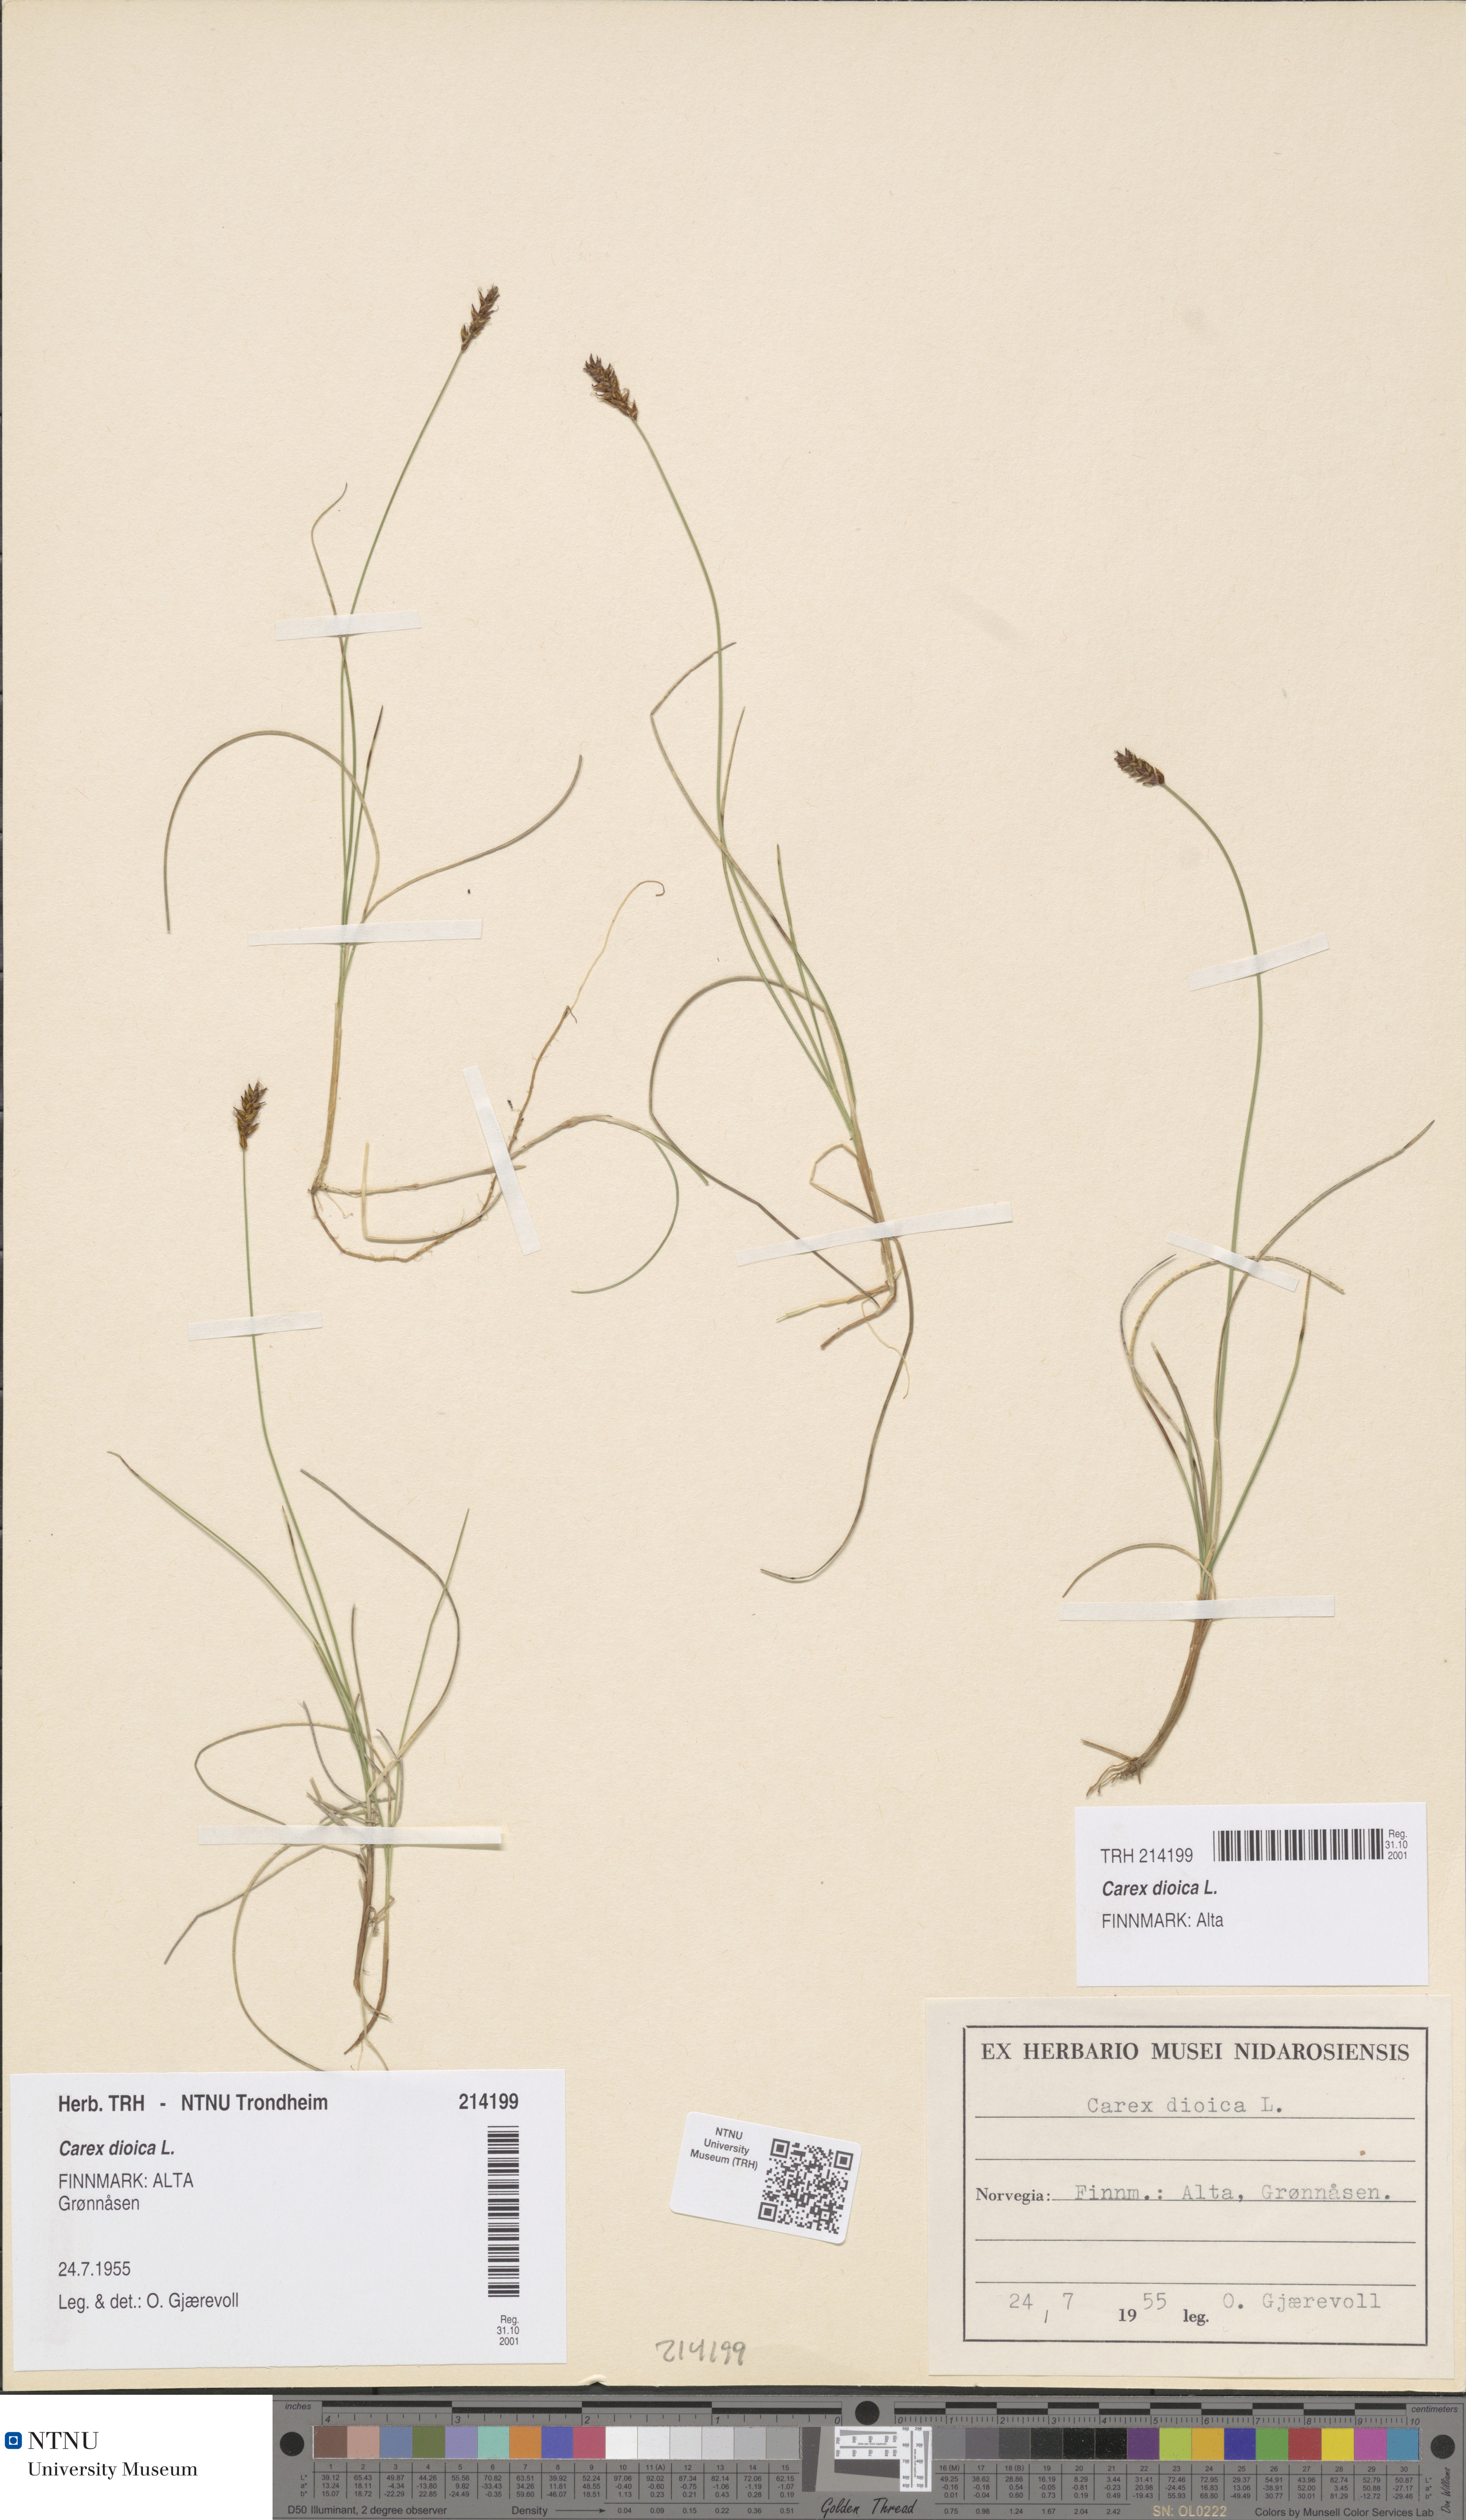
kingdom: Plantae
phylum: Tracheophyta
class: Liliopsida
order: Poales
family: Cyperaceae
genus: Carex
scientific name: Carex dioica
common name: Dioecious sedge
